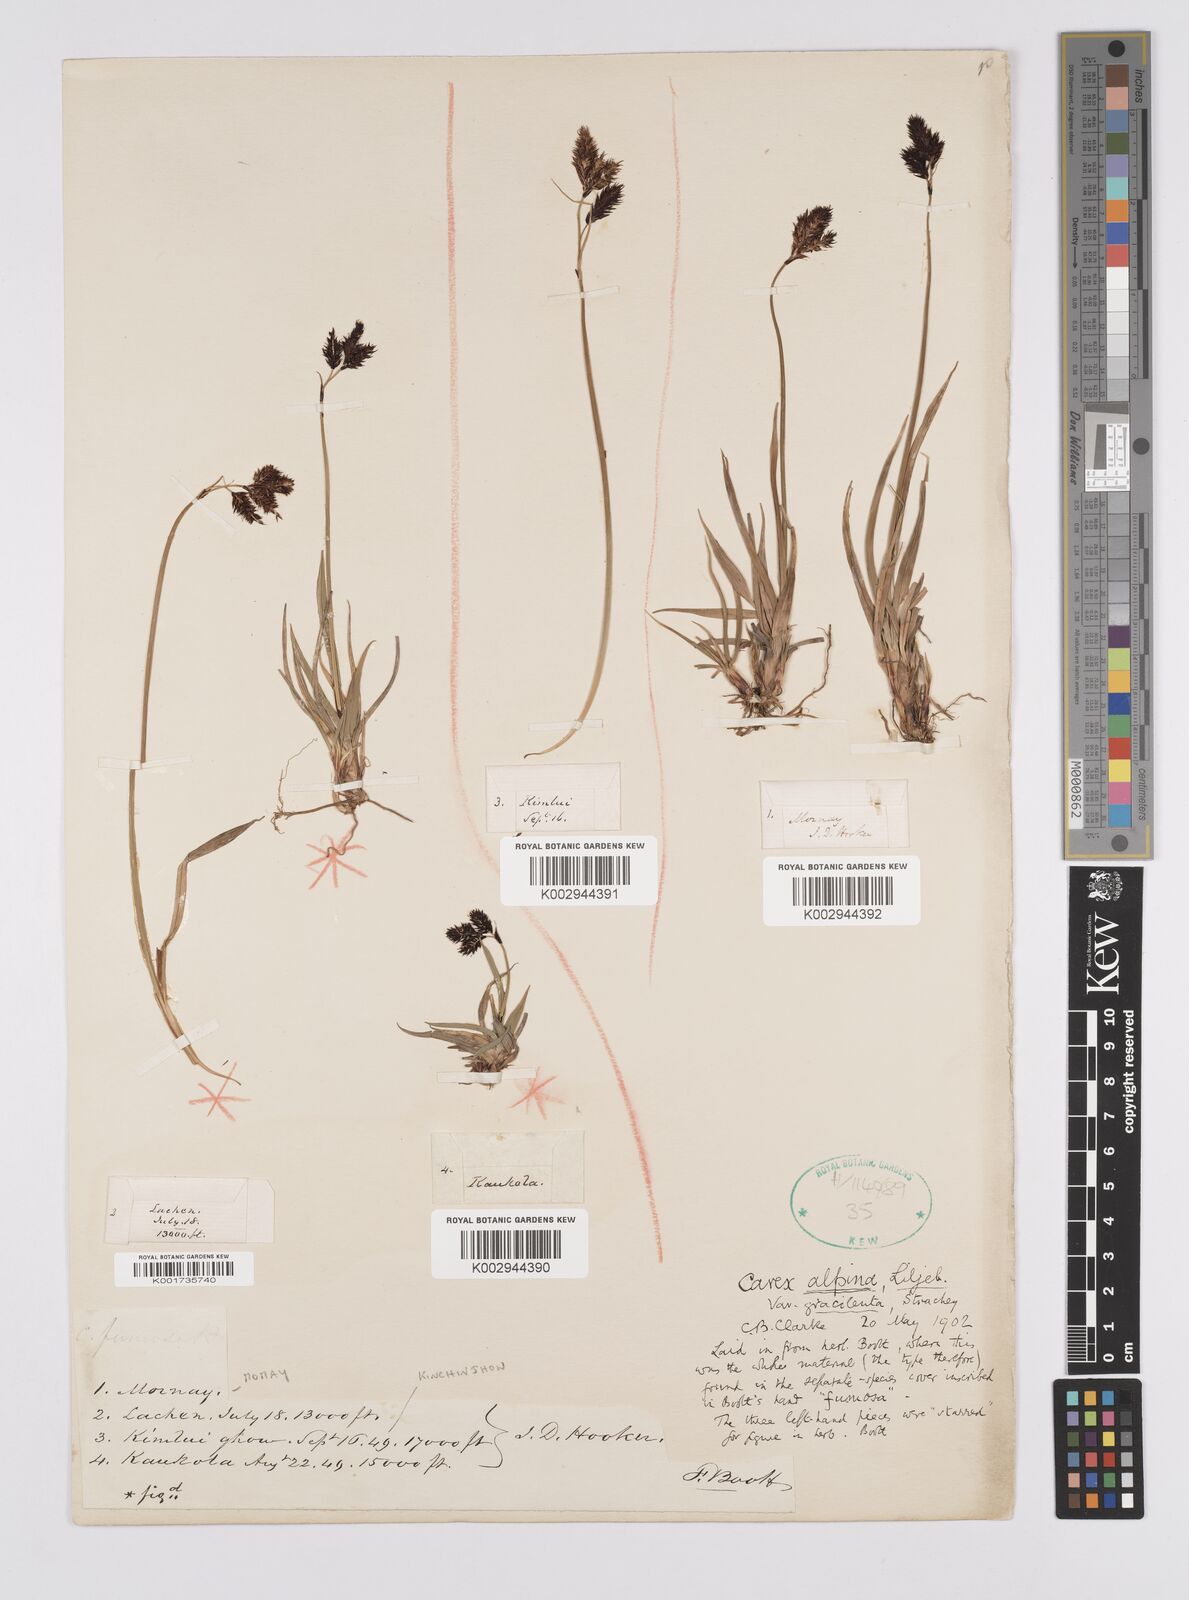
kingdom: Plantae
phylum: Tracheophyta
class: Liliopsida
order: Poales
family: Cyperaceae
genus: Carex
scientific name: Carex norvegica
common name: Close-headed alpine-sedge
